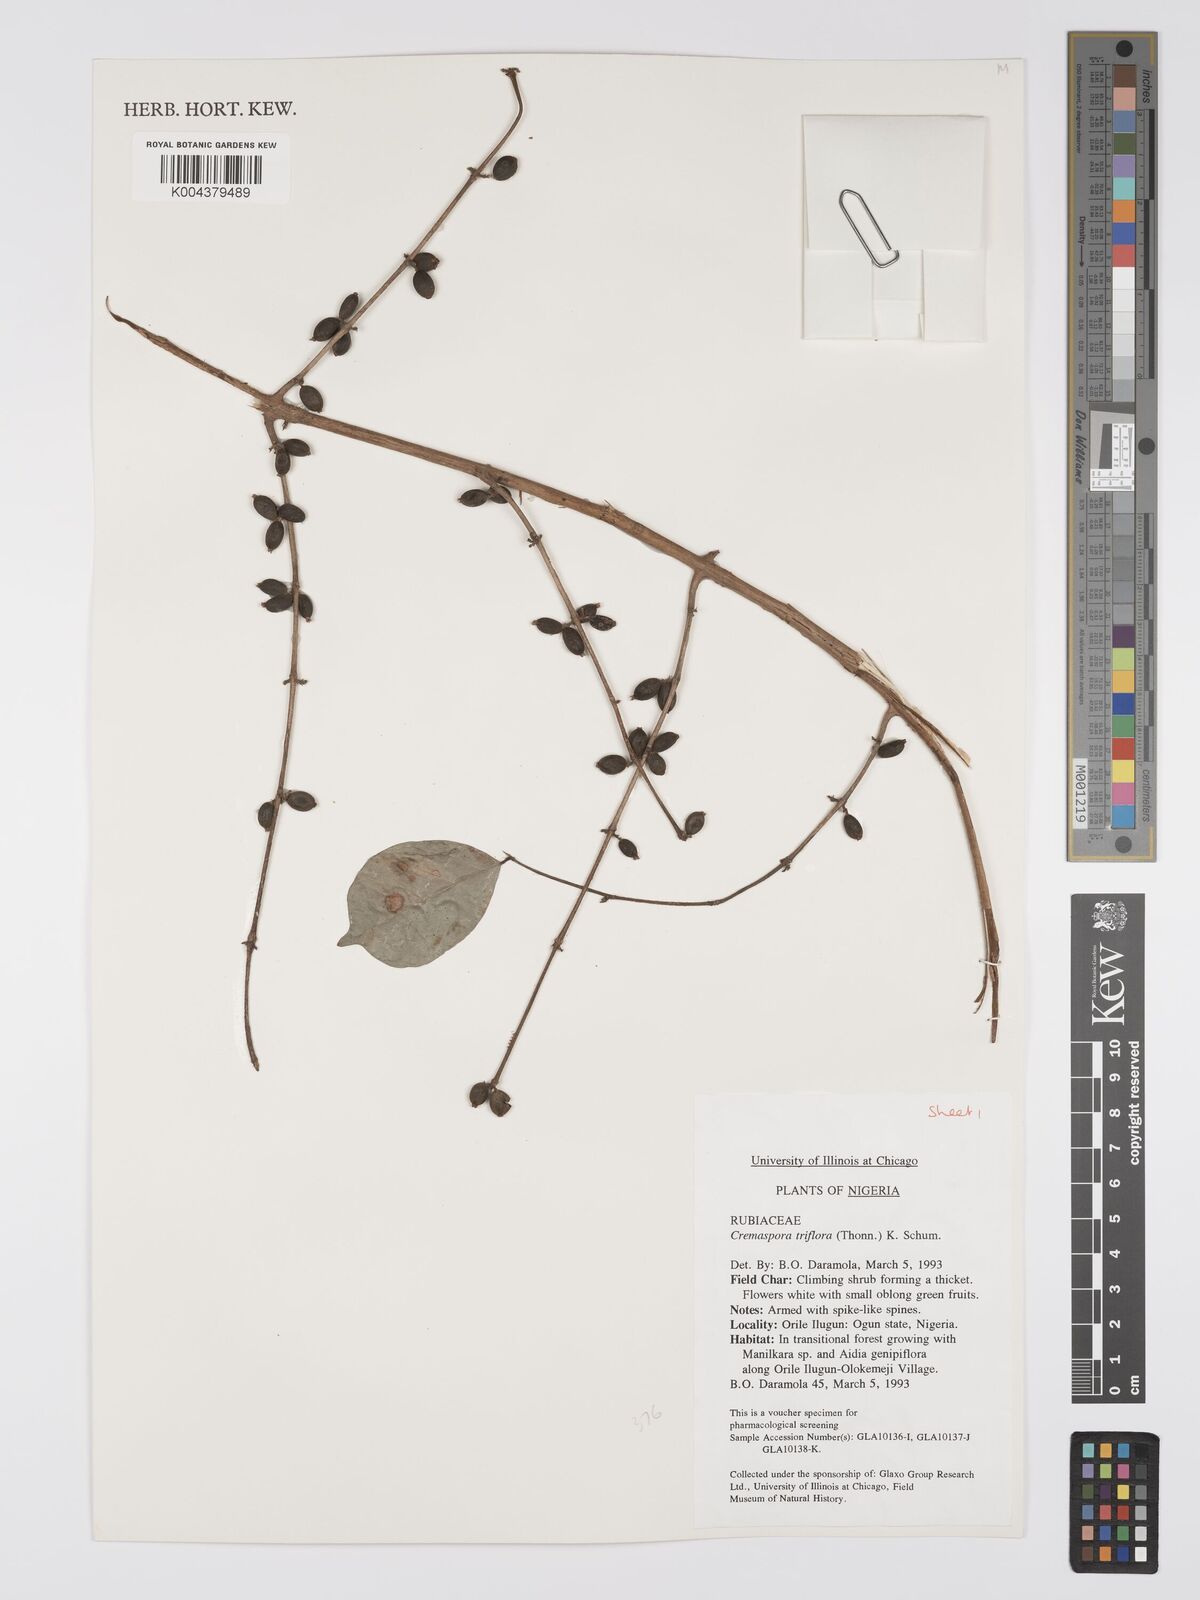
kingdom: Plantae
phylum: Tracheophyta
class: Magnoliopsida
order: Gentianales
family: Rubiaceae
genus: Cremaspora
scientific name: Cremaspora triflora
